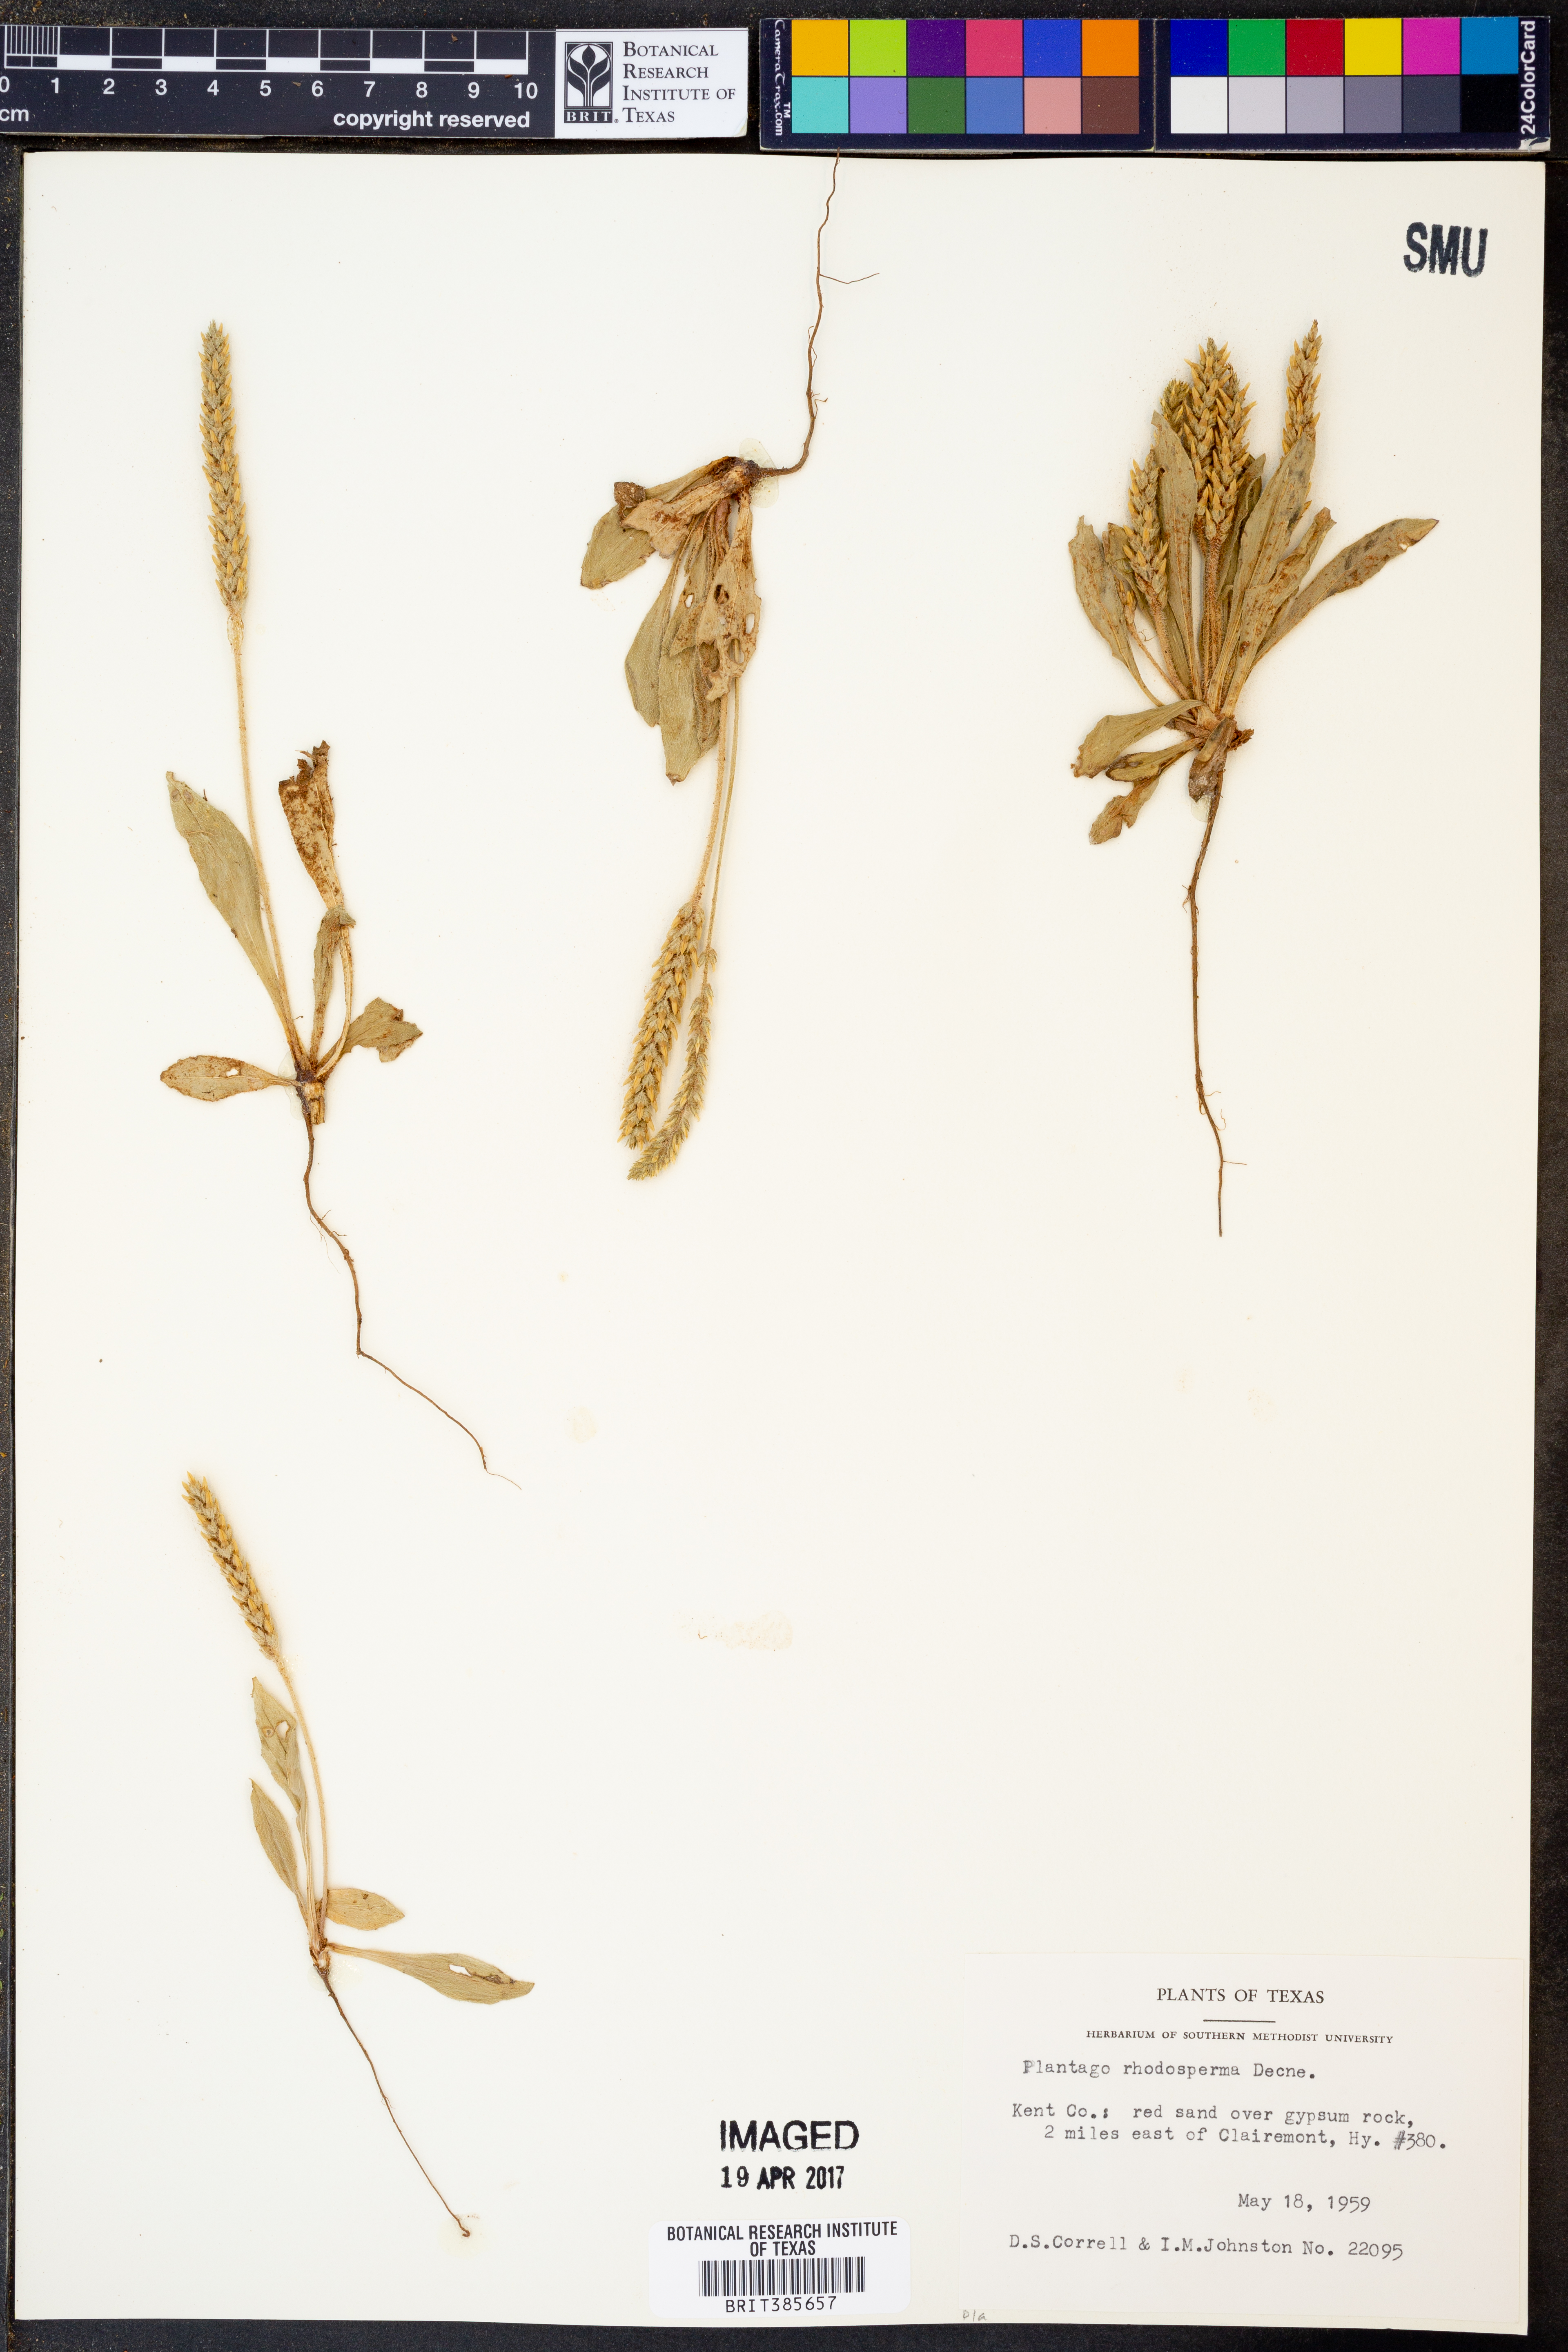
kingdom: Plantae
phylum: Tracheophyta
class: Magnoliopsida
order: Lamiales
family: Plantaginaceae
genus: Plantago
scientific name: Plantago rhodosperma
